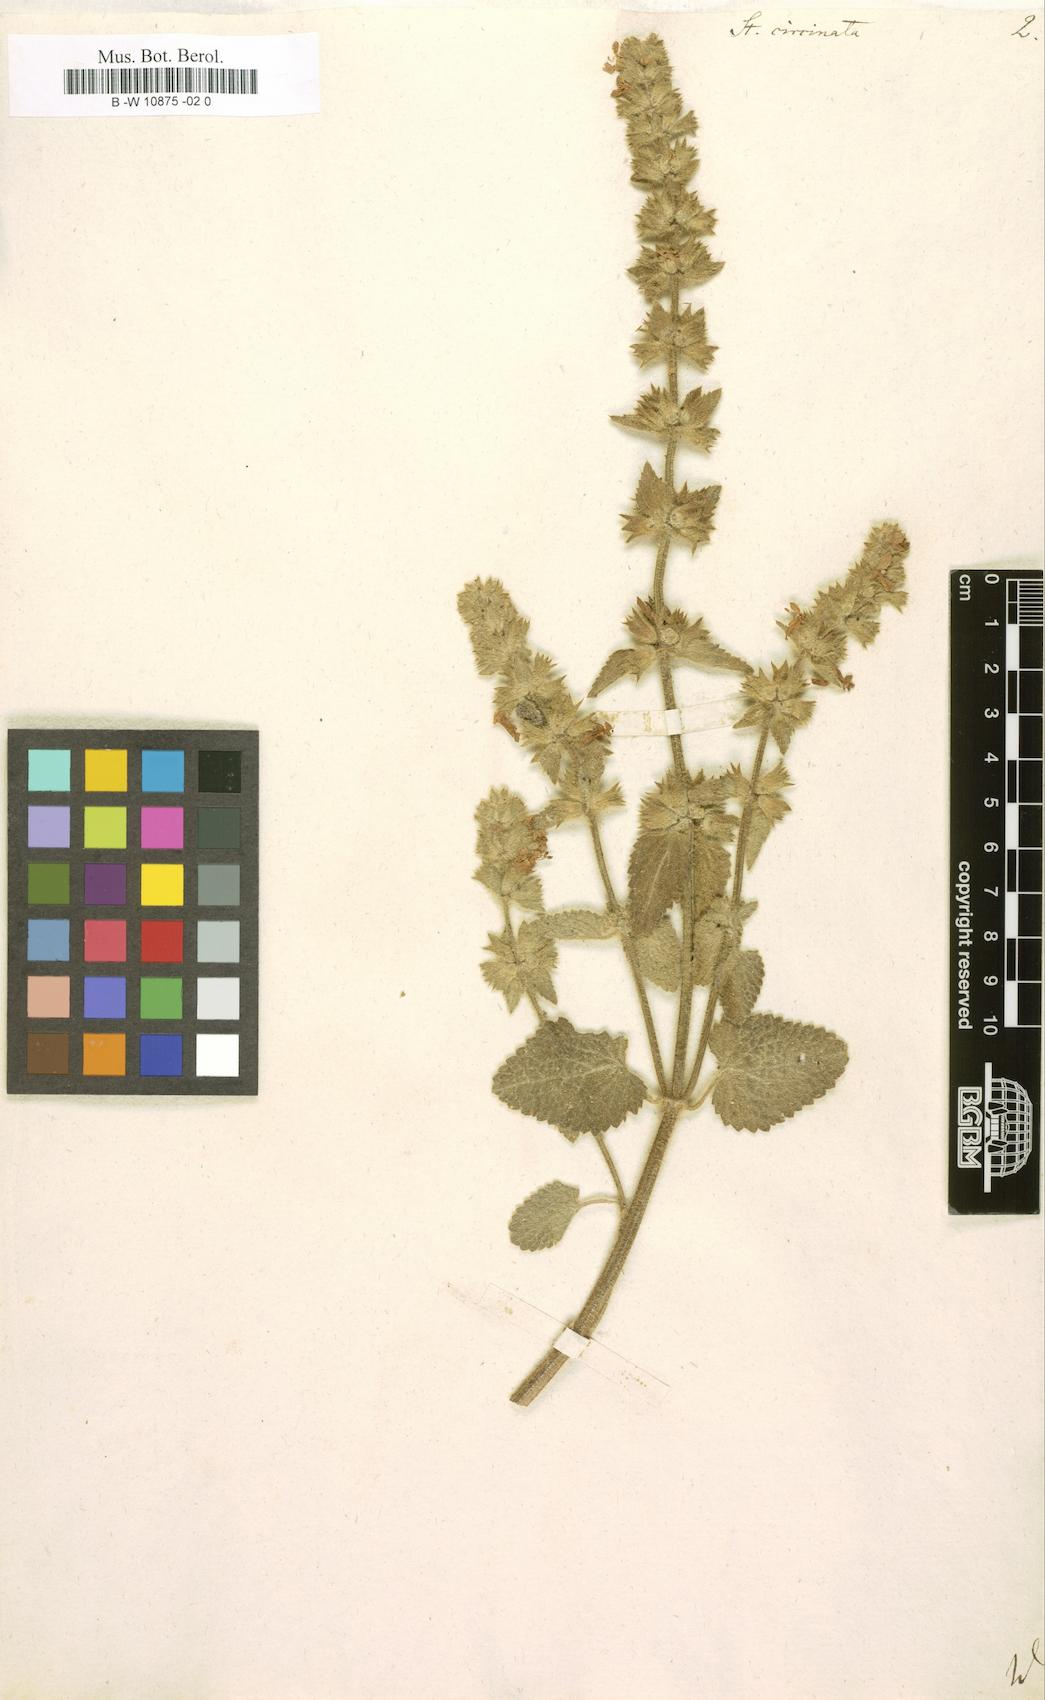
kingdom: Plantae
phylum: Tracheophyta
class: Magnoliopsida
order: Lamiales
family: Lamiaceae
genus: Stachys
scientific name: Stachys circinata
